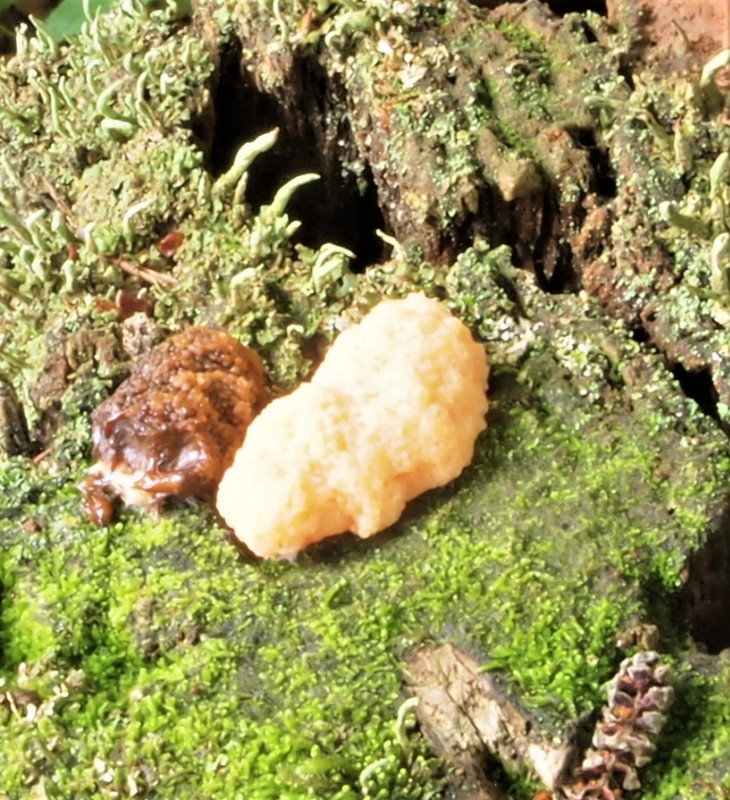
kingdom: Protozoa
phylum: Mycetozoa
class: Myxomycetes
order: Cribrariales
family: Tubiferaceae
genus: Tubifera
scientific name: Tubifera ferruginosa
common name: kanel-støvrør
